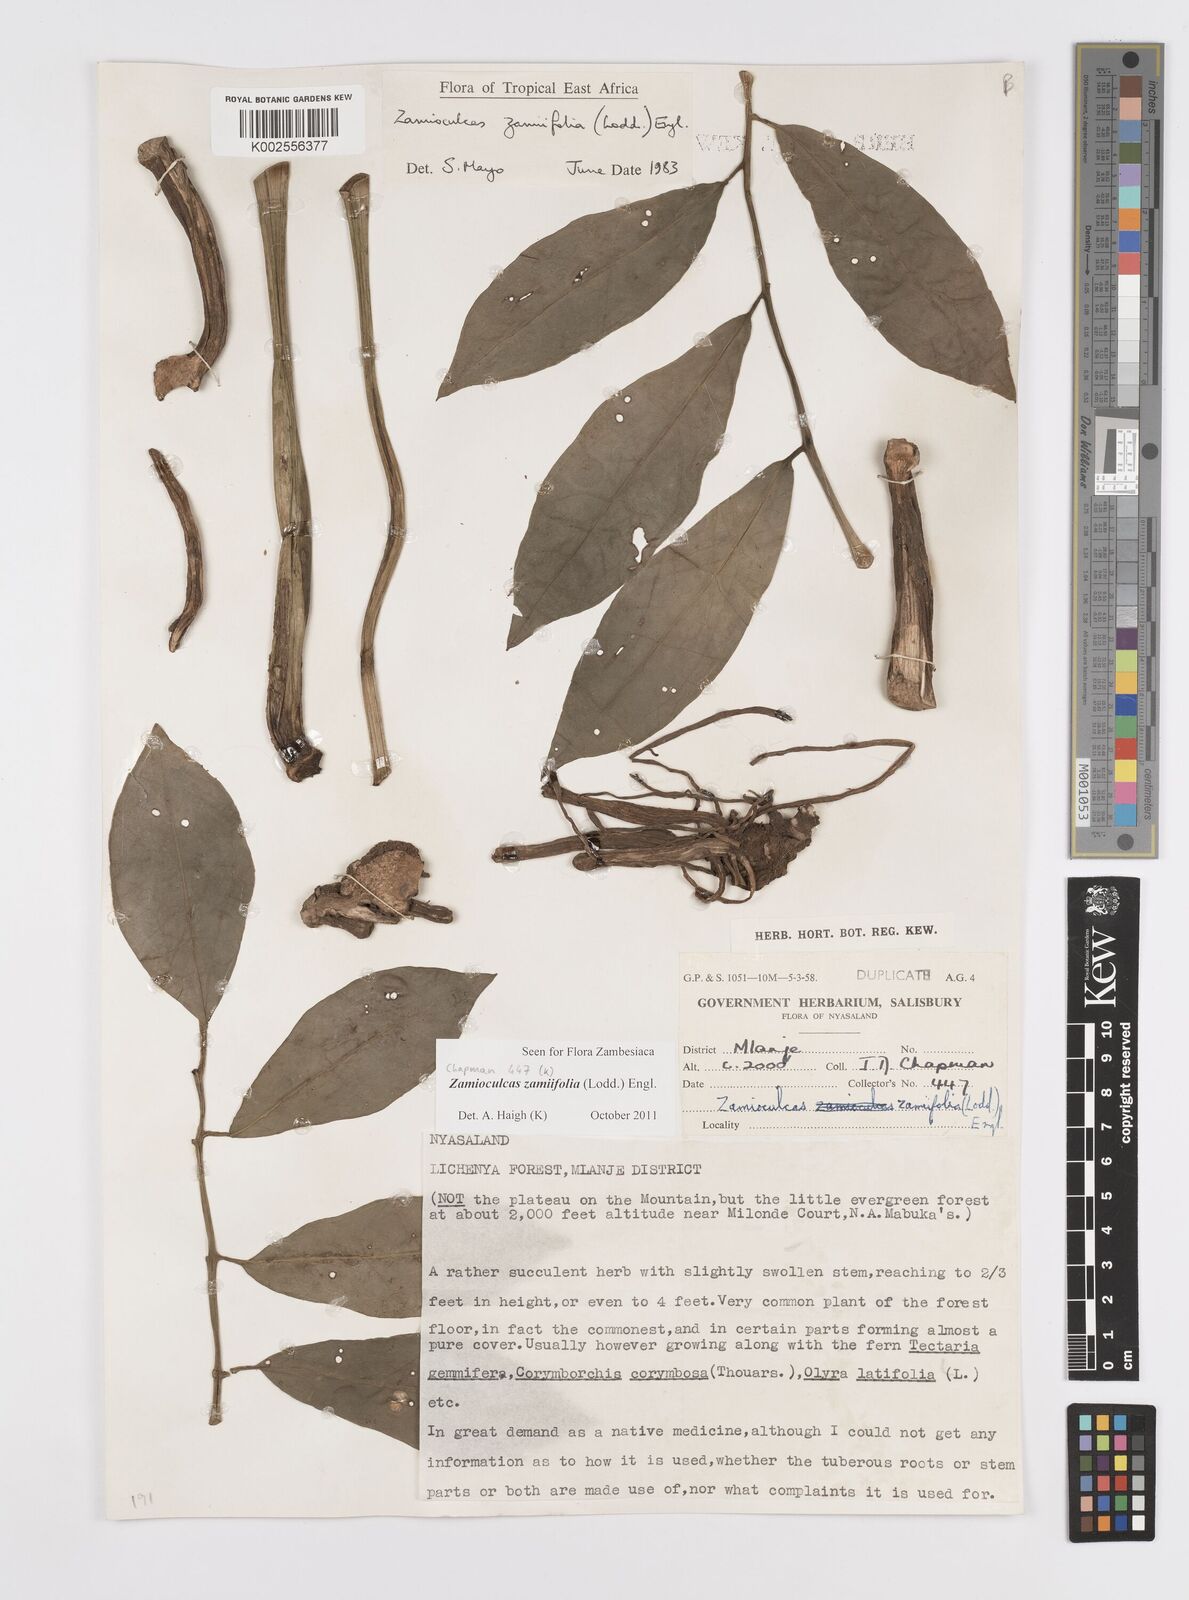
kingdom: Plantae
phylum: Tracheophyta
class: Liliopsida
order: Alismatales
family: Araceae
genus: Zamioculcas
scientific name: Zamioculcas zamiifolia
